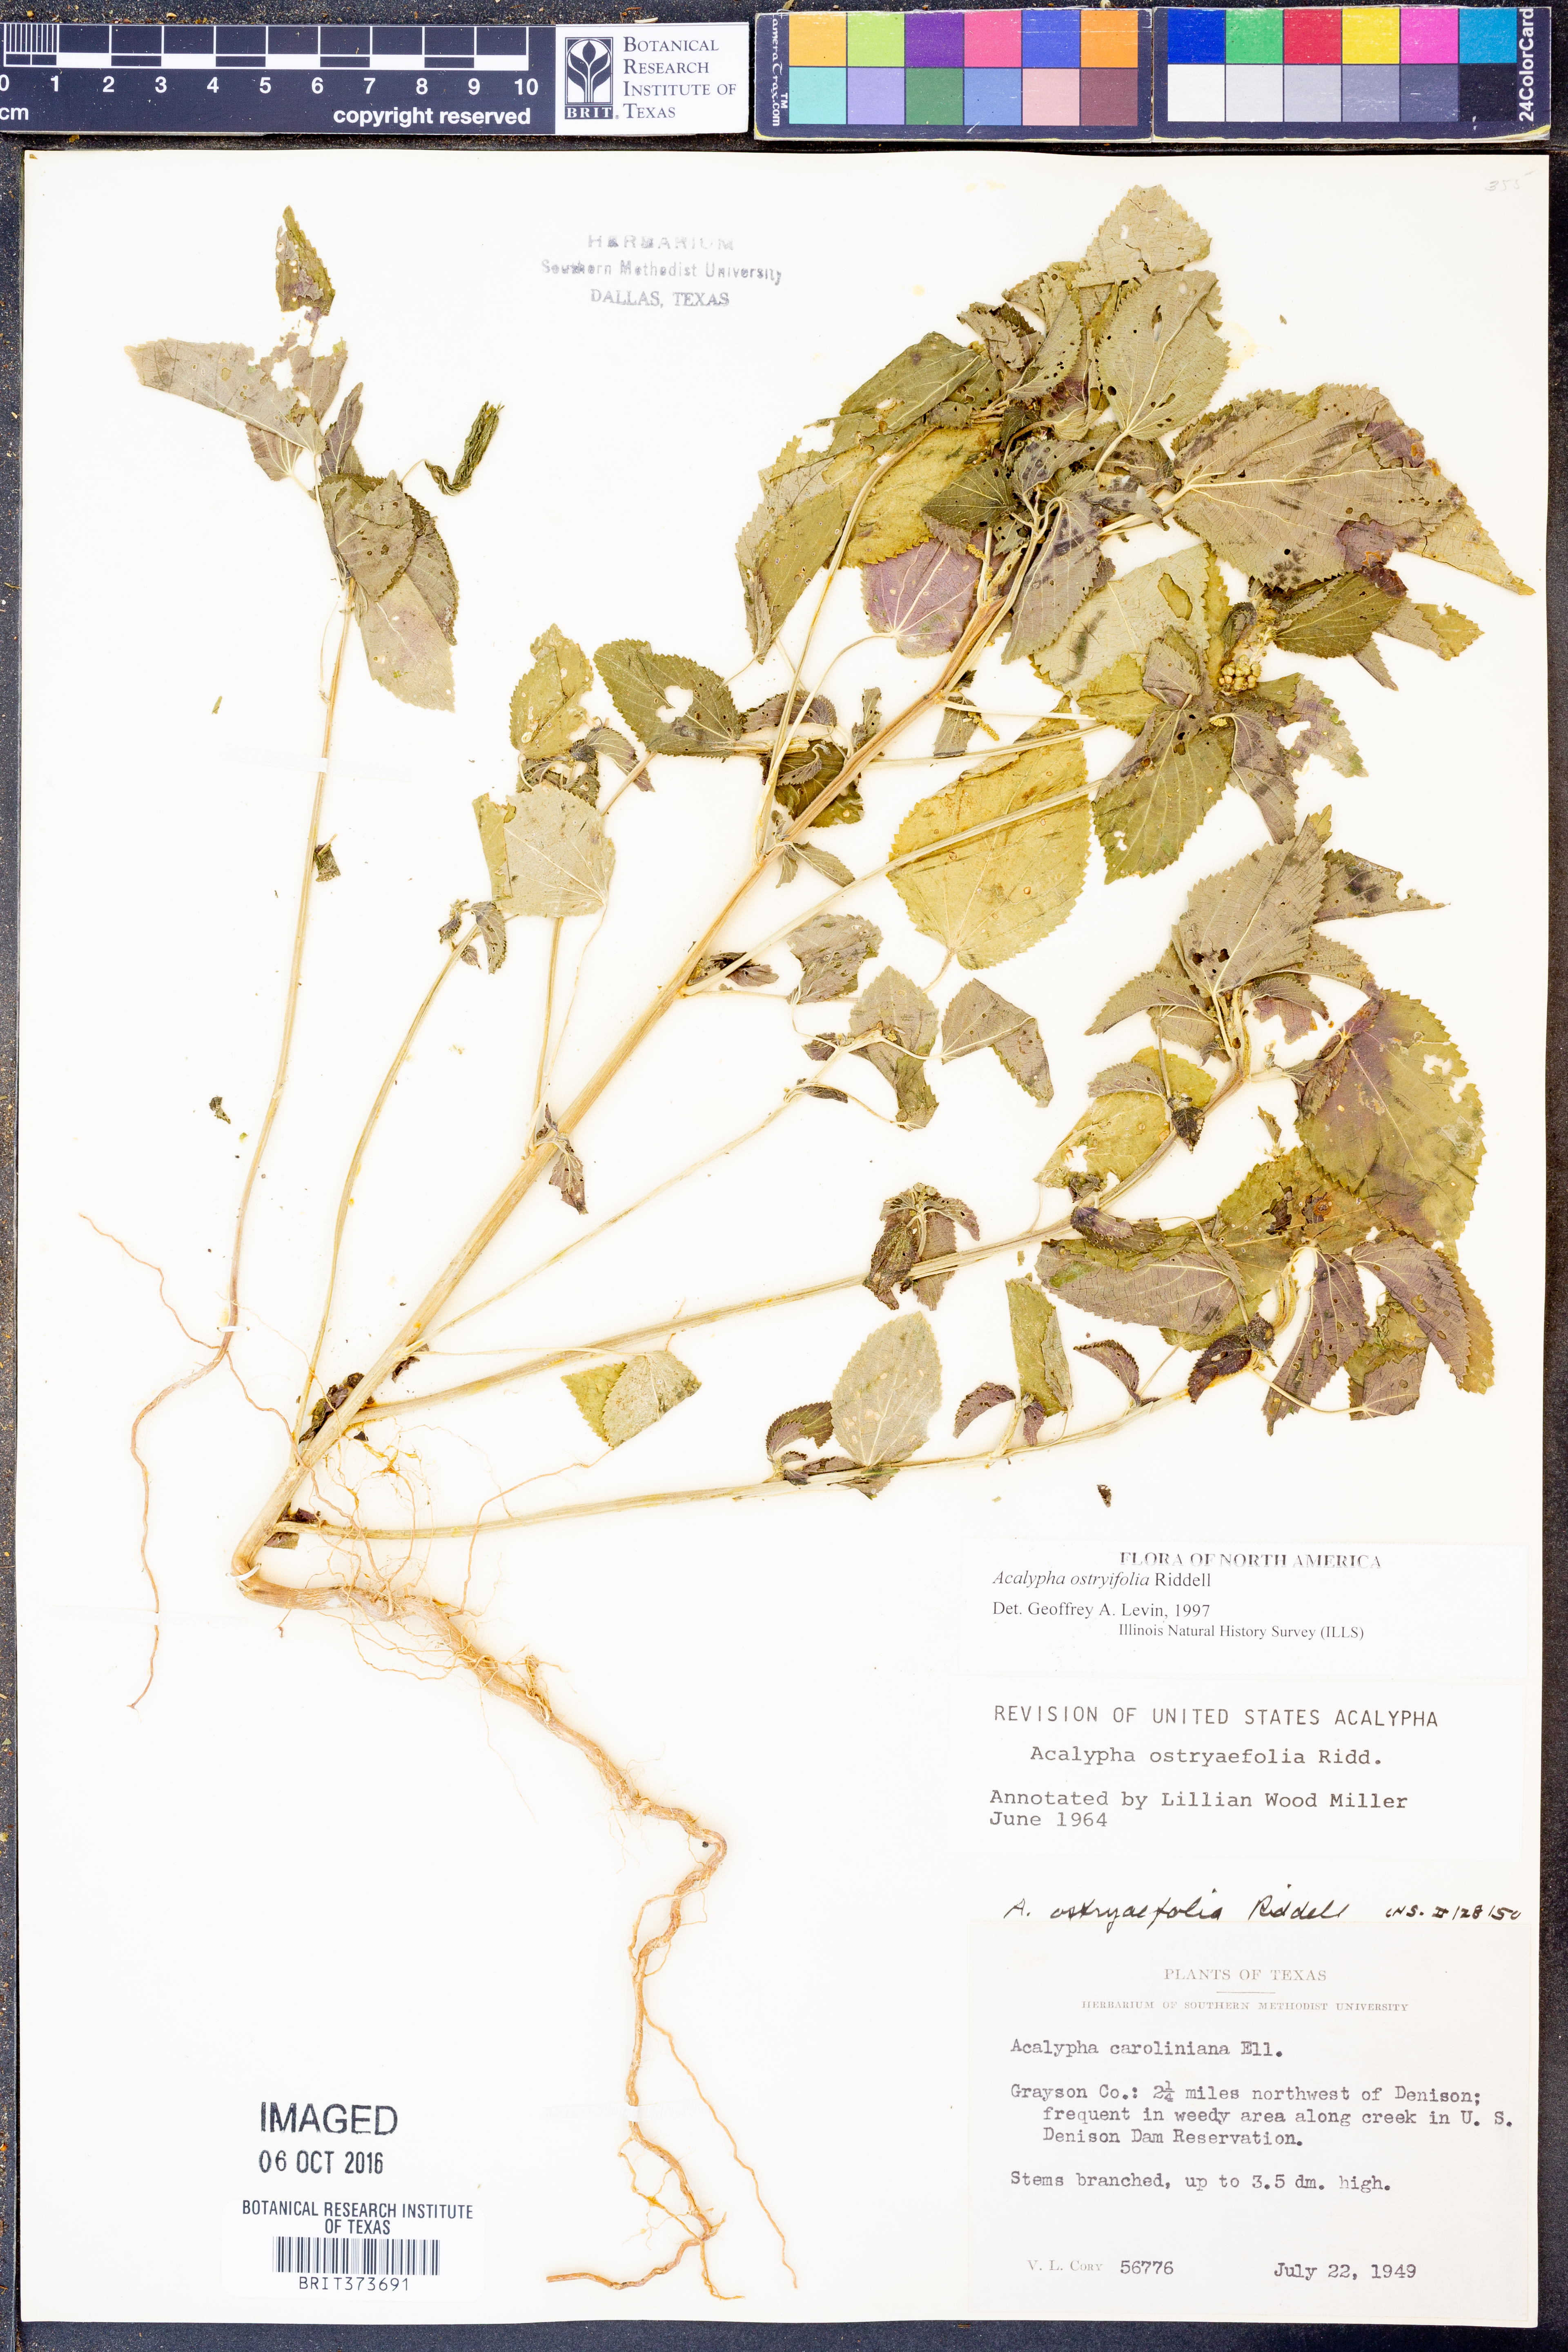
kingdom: Plantae
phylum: Tracheophyta
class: Magnoliopsida
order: Malpighiales
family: Euphorbiaceae
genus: Acalypha
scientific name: Acalypha persimilis
